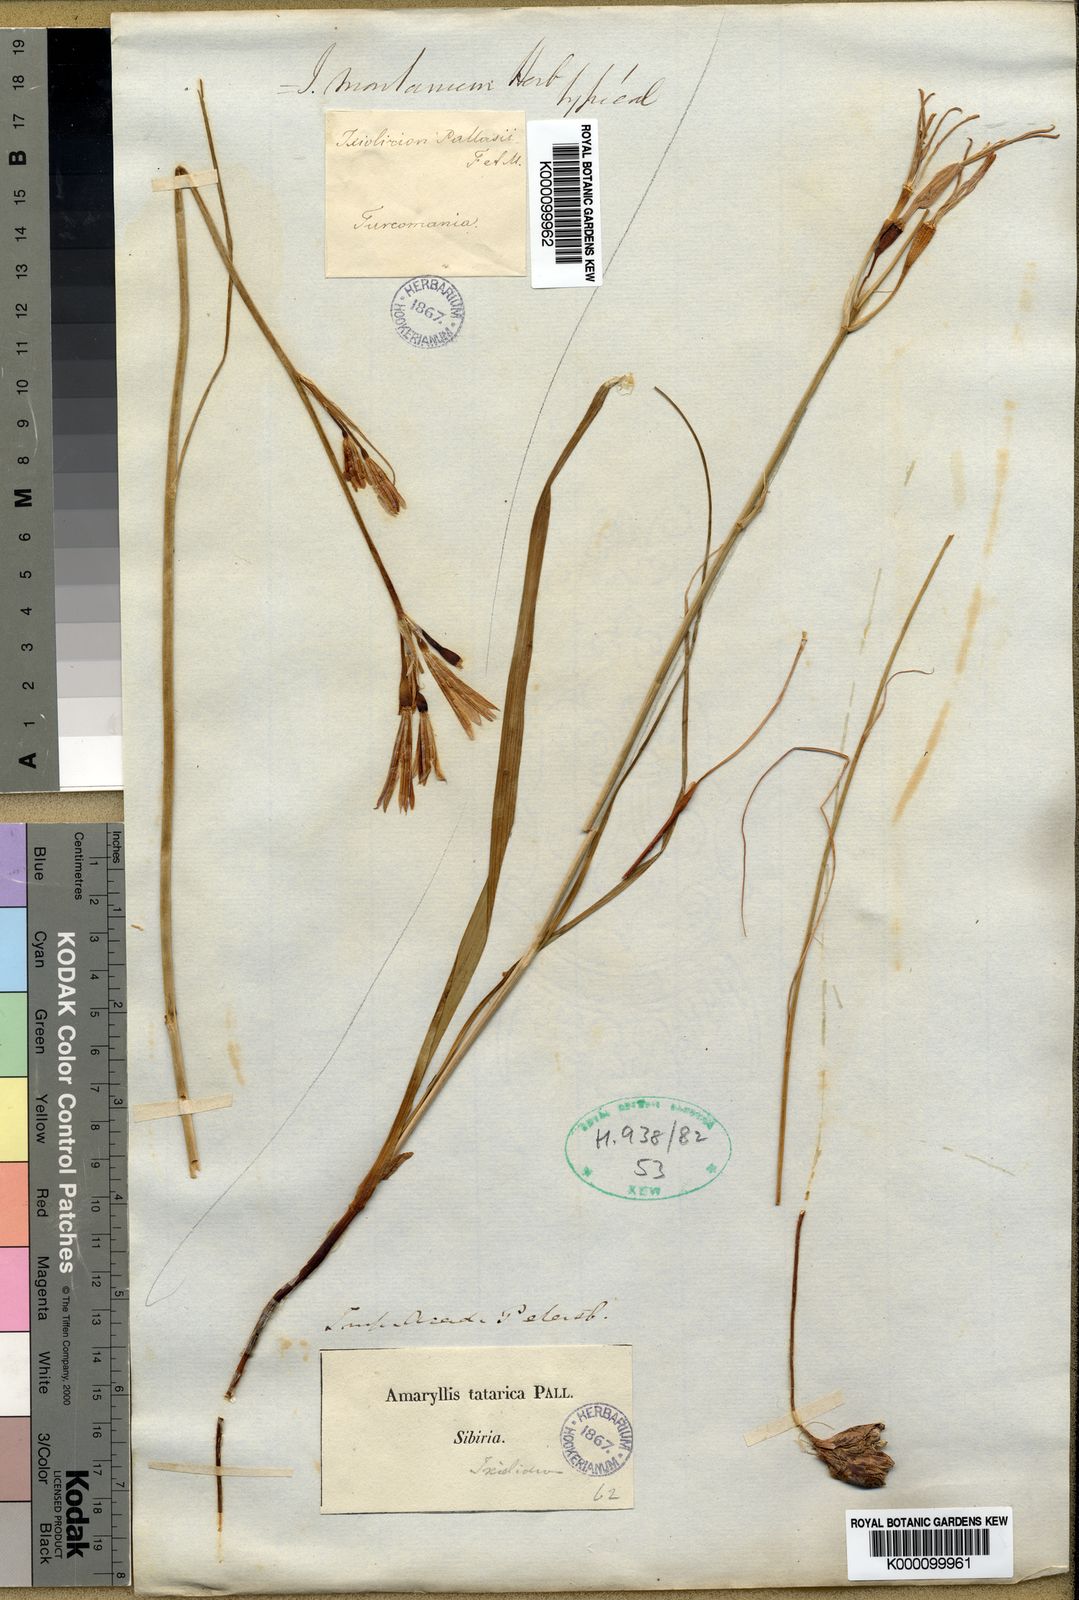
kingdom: Plantae
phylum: Tracheophyta
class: Liliopsida
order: Asparagales
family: Ixioliriaceae
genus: Ixiolirion
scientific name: Ixiolirion
